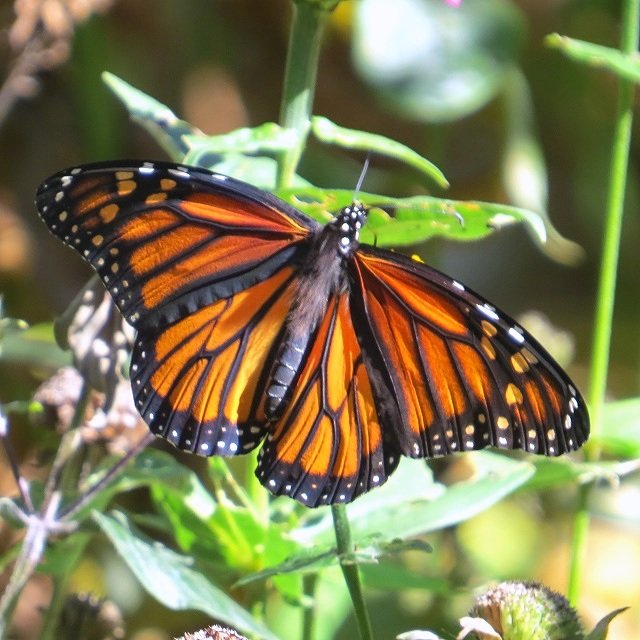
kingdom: Animalia
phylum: Arthropoda
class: Insecta
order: Lepidoptera
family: Nymphalidae
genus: Danaus
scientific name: Danaus plexippus
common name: Monarch
